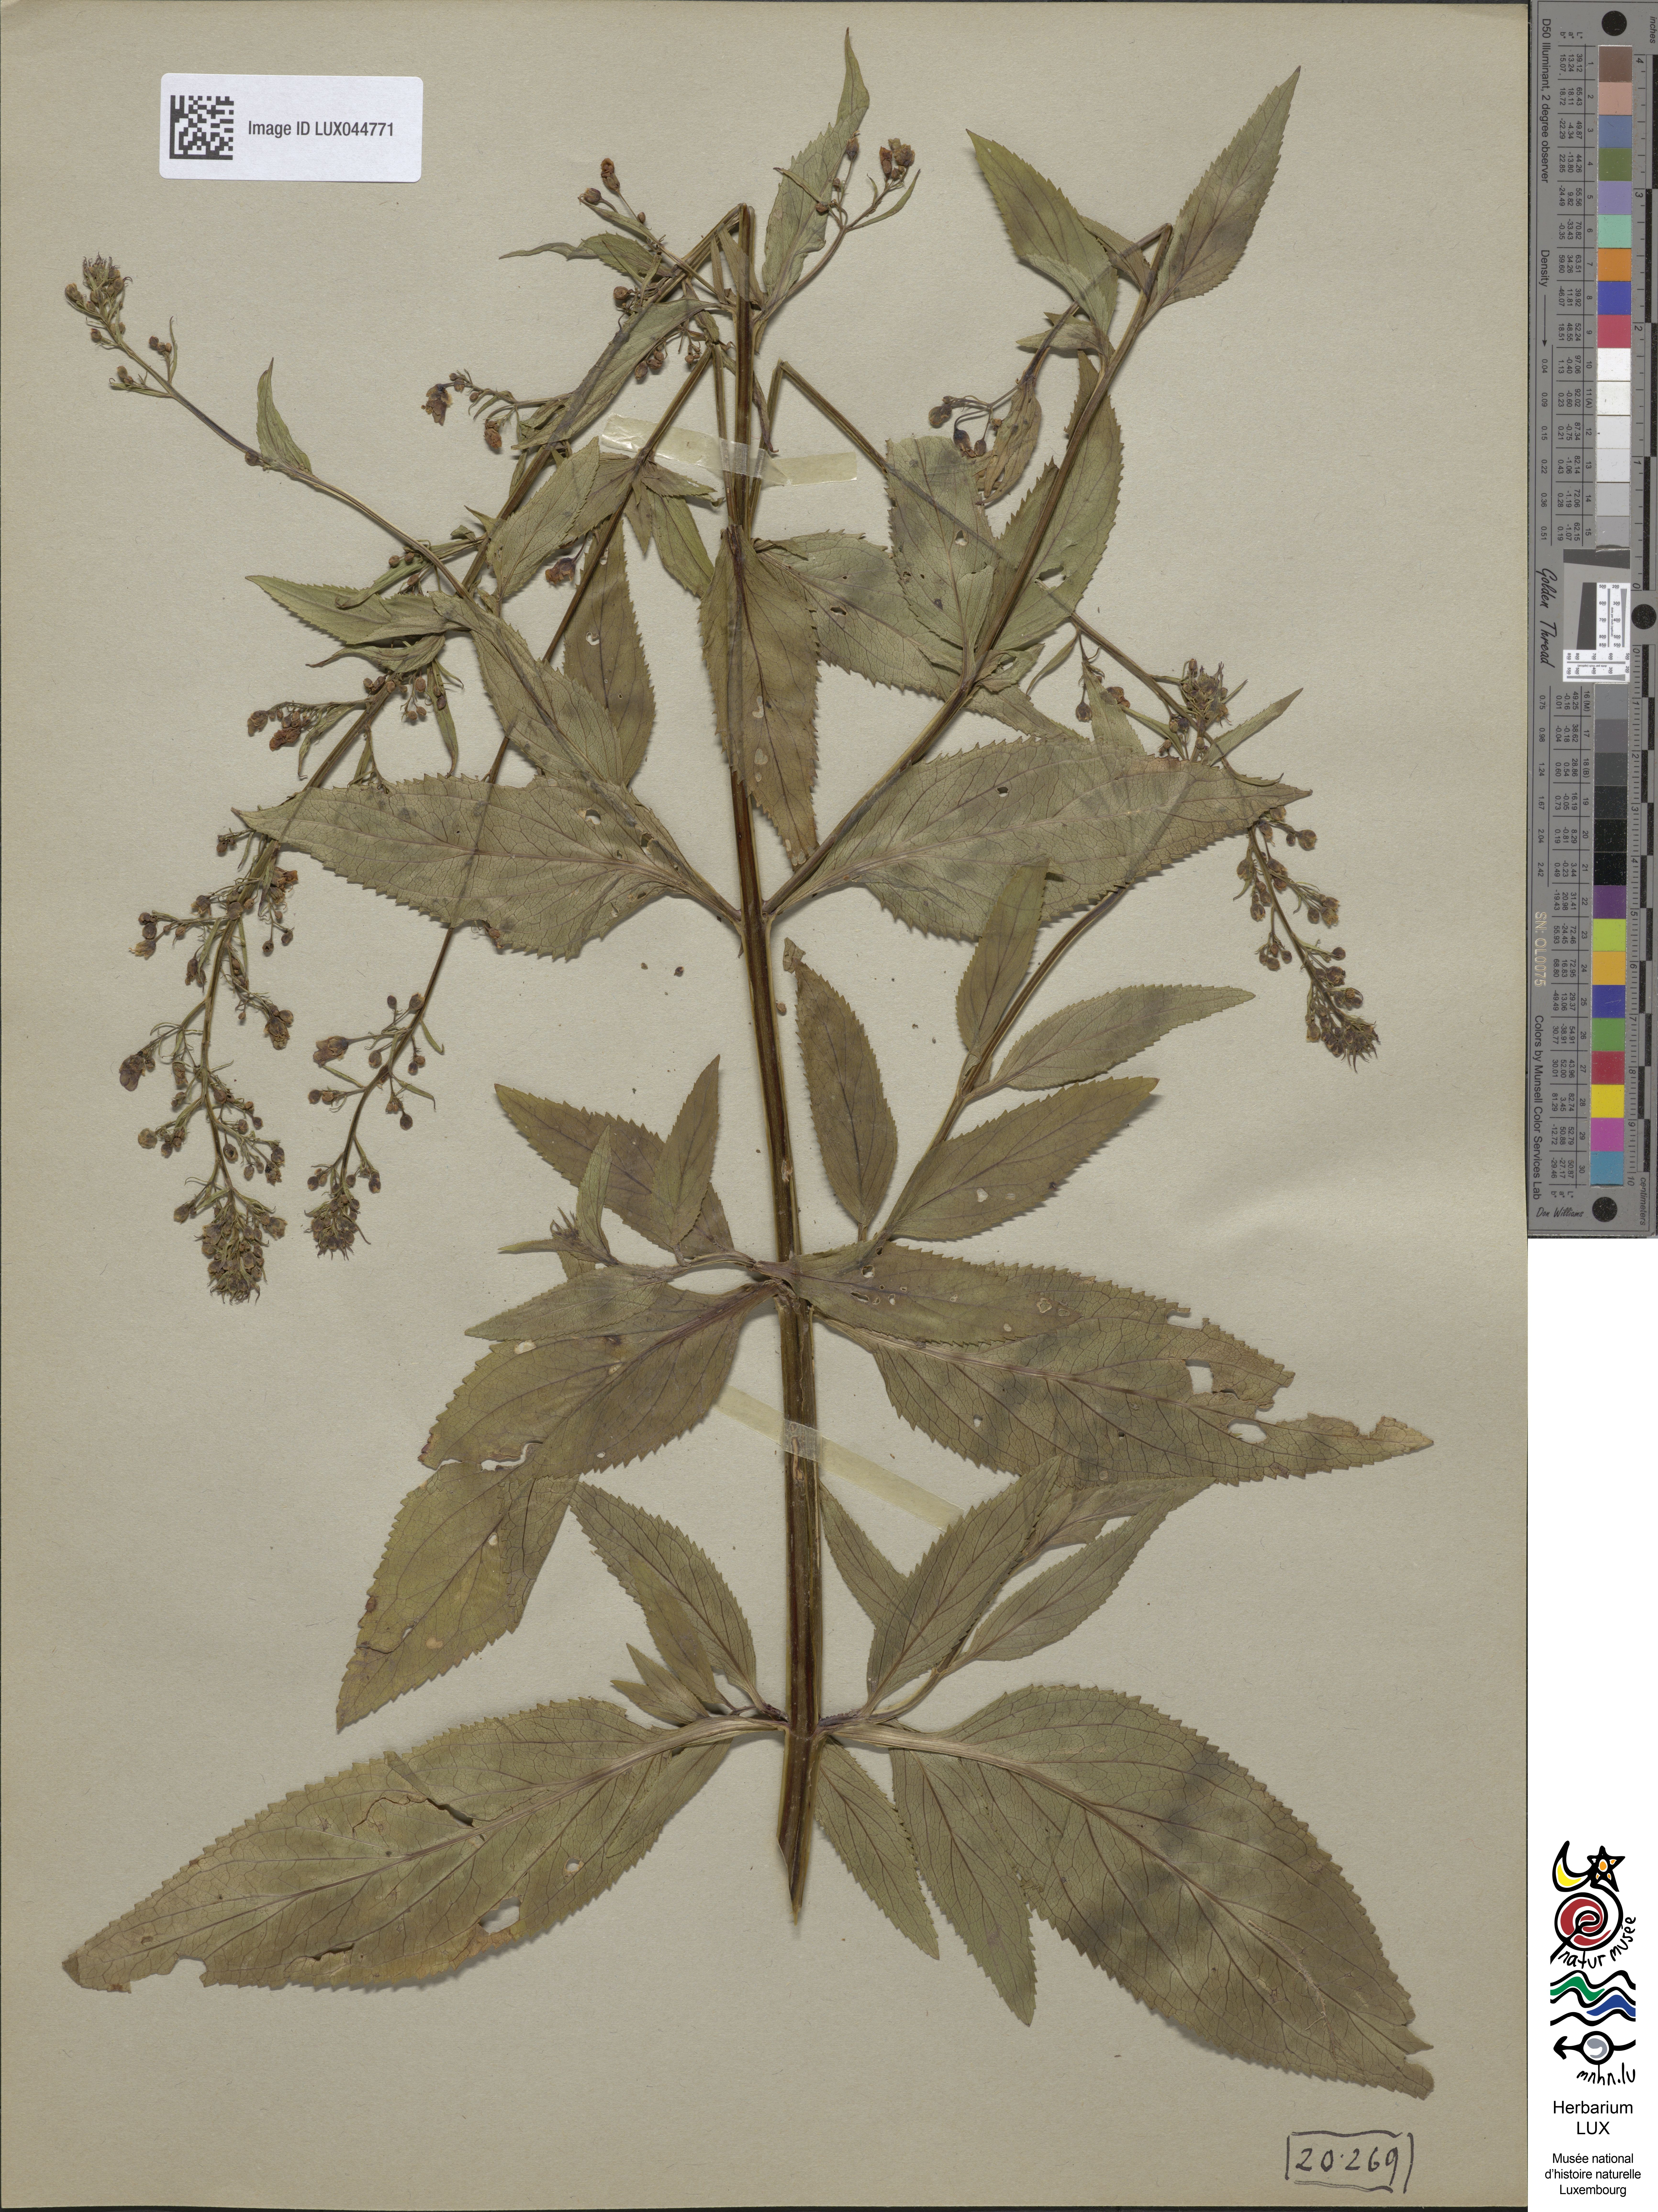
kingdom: Plantae
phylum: Tracheophyta
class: Magnoliopsida
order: Lamiales
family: Scrophulariaceae
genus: Scrophularia
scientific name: Scrophularia umbrosa
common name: Green figwort
